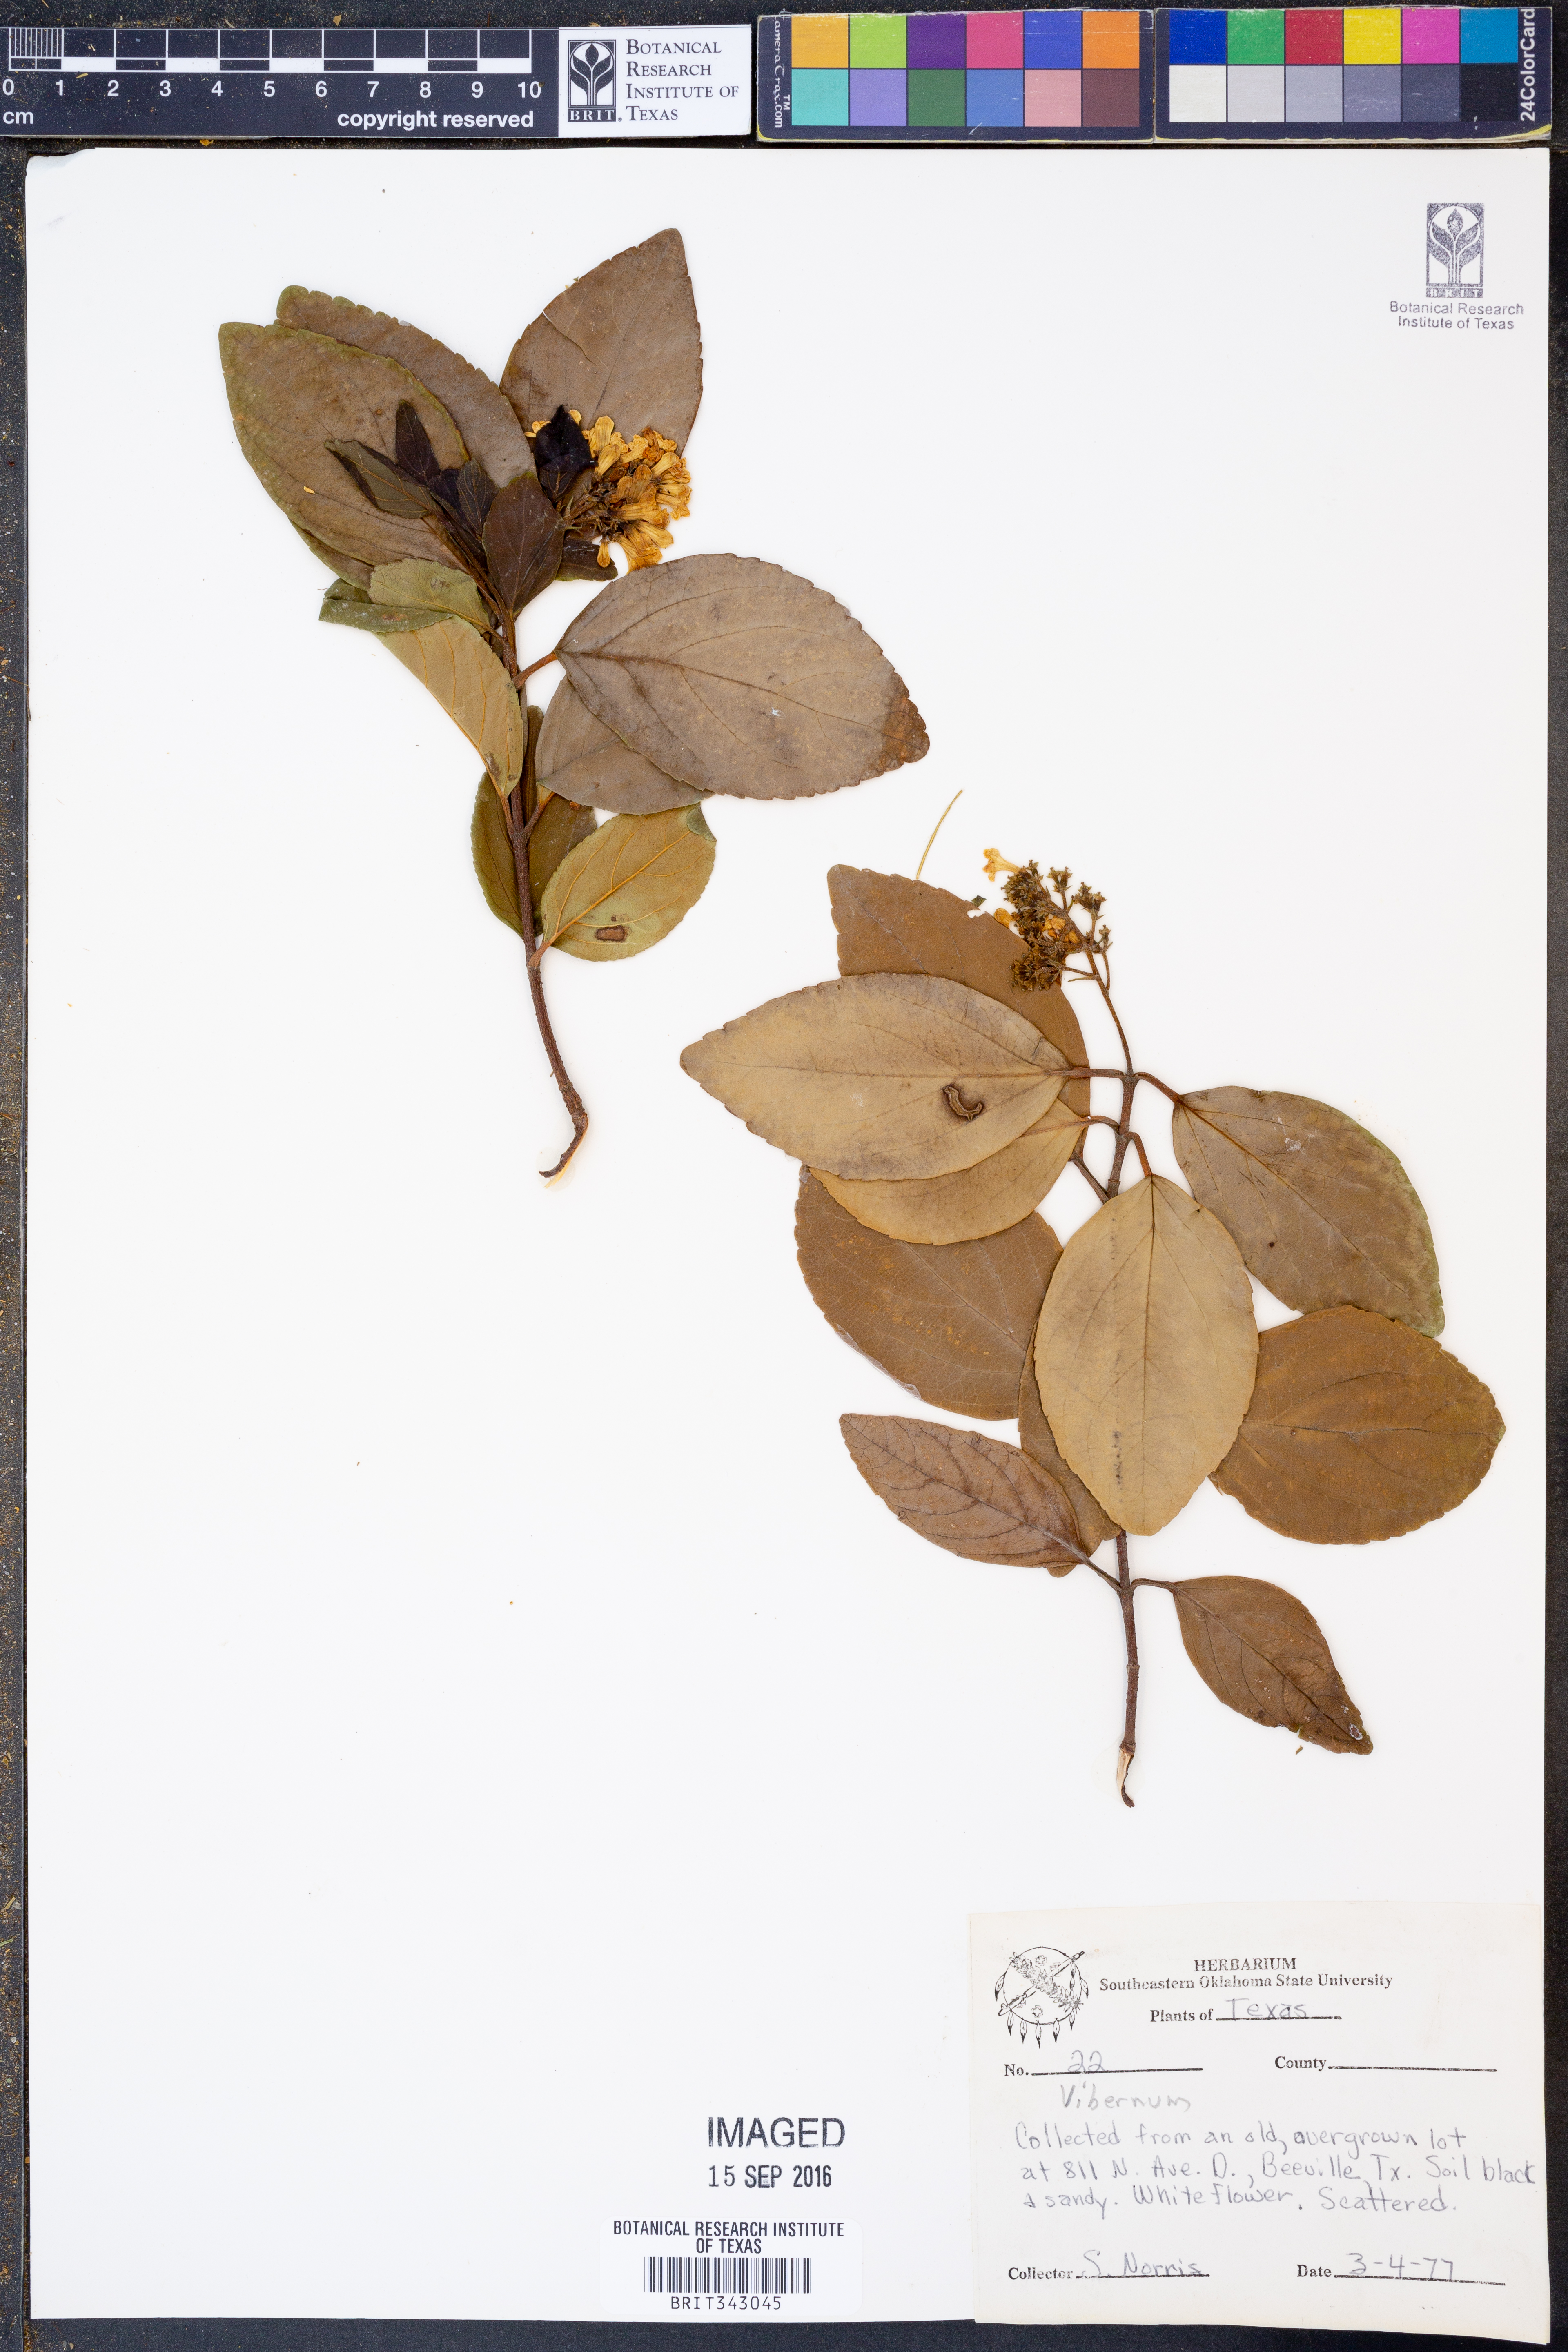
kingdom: Plantae
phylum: Tracheophyta
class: Magnoliopsida
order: Dipsacales
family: Viburnaceae
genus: Viburnum
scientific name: Viburnum
